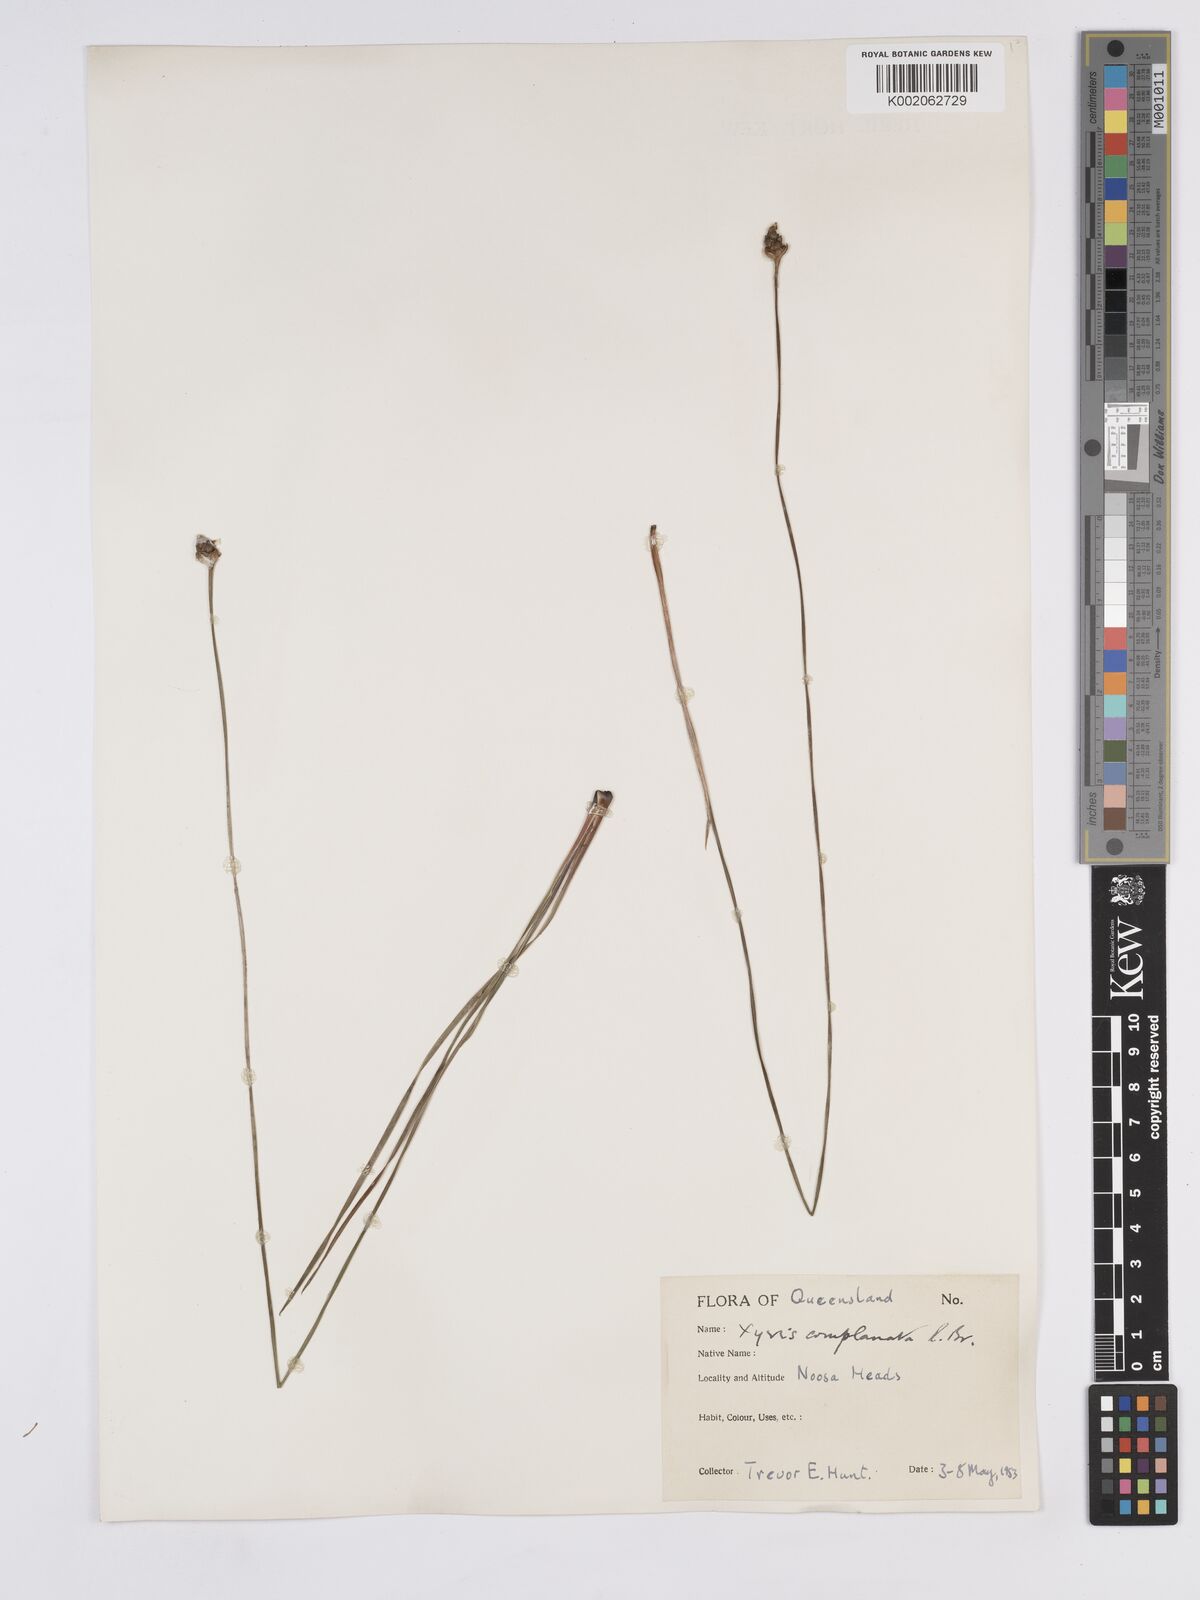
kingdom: Plantae
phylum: Tracheophyta
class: Liliopsida
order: Poales
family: Xyridaceae
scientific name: Xyridaceae
